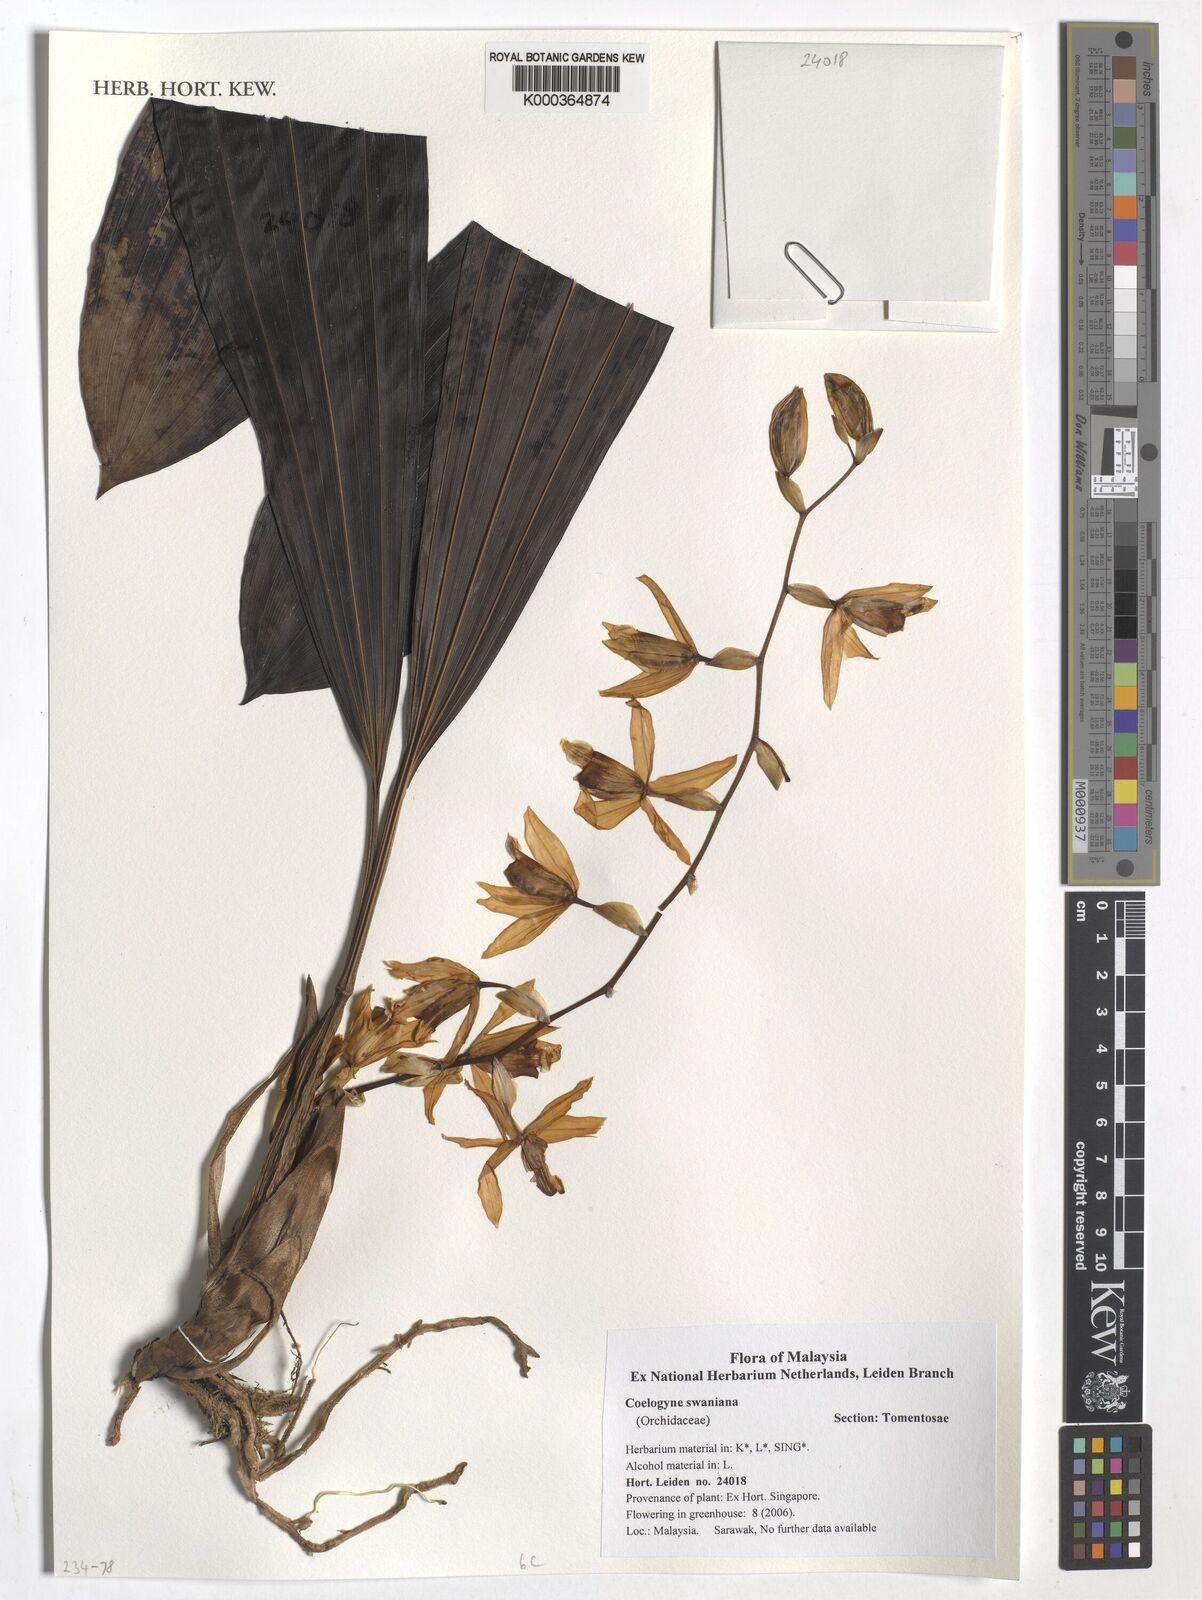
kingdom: Plantae
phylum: Tracheophyta
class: Liliopsida
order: Asparagales
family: Orchidaceae
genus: Coelogyne
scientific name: Coelogyne swaniana
